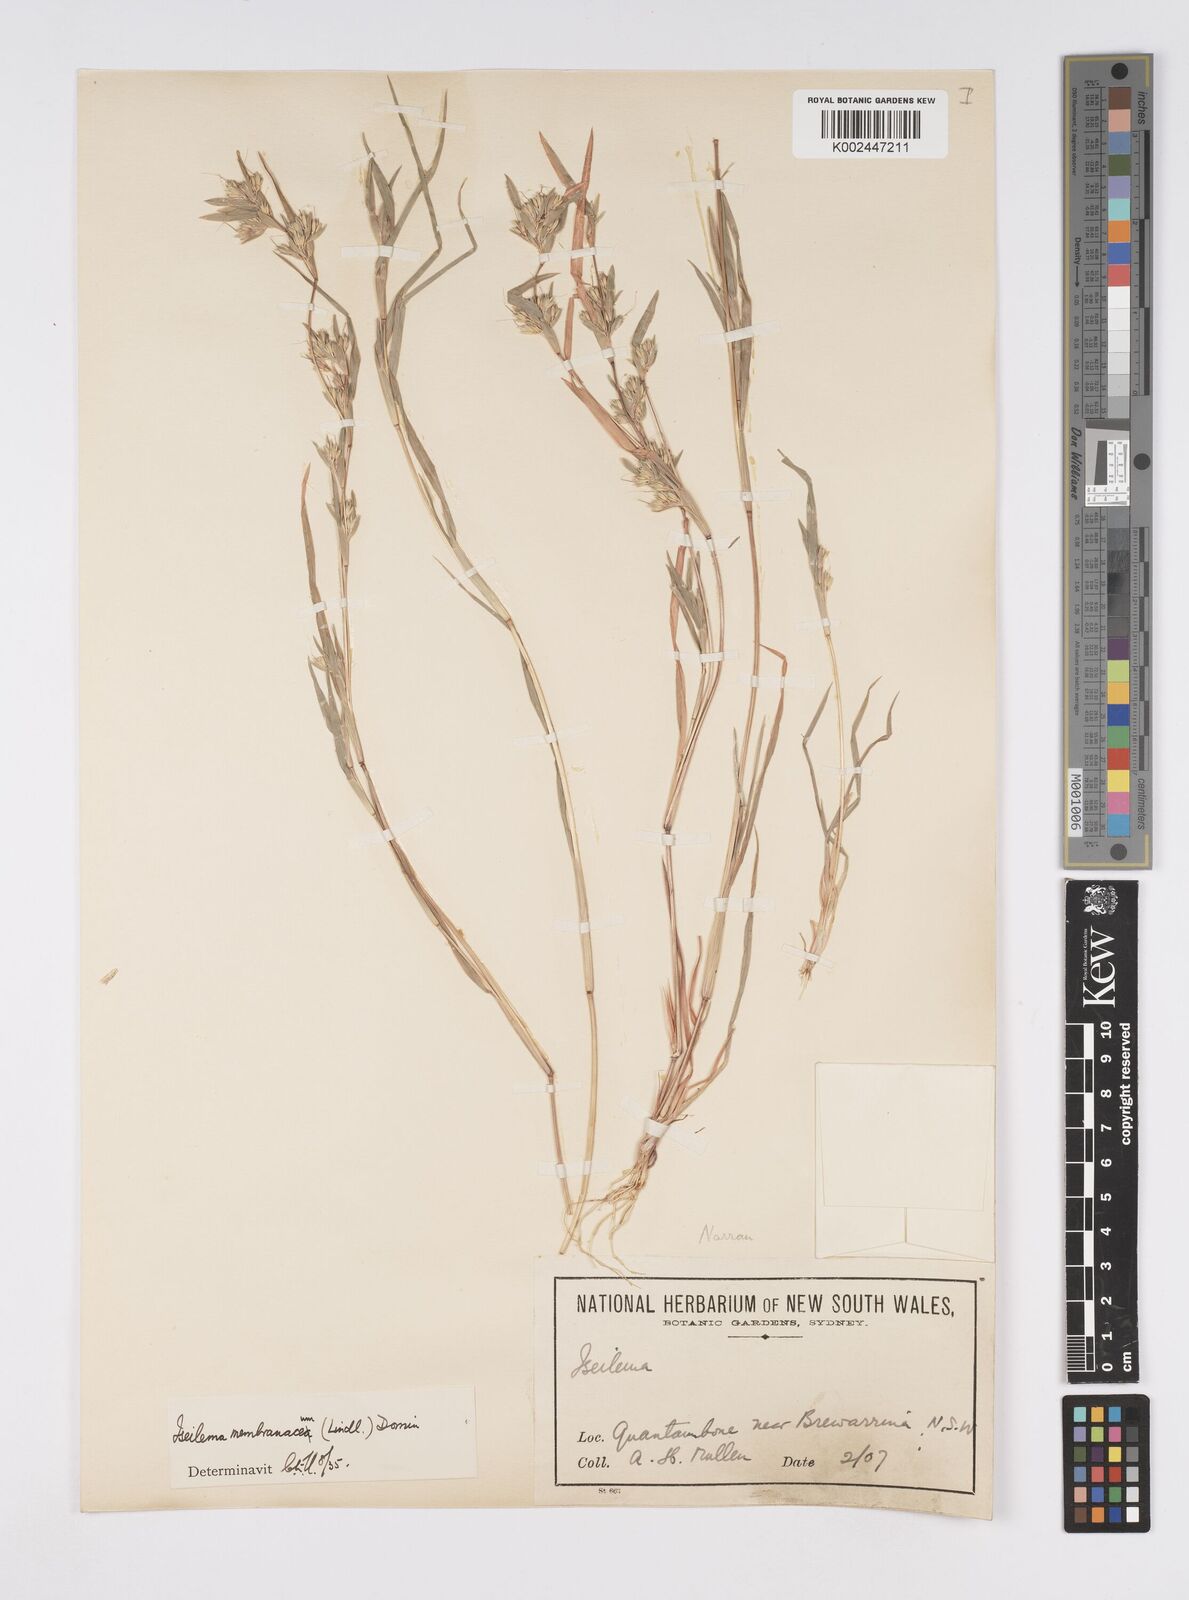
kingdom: Plantae
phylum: Tracheophyta
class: Liliopsida
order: Poales
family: Poaceae
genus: Iseilema
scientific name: Iseilema membranaceum
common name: Small flinders grass
